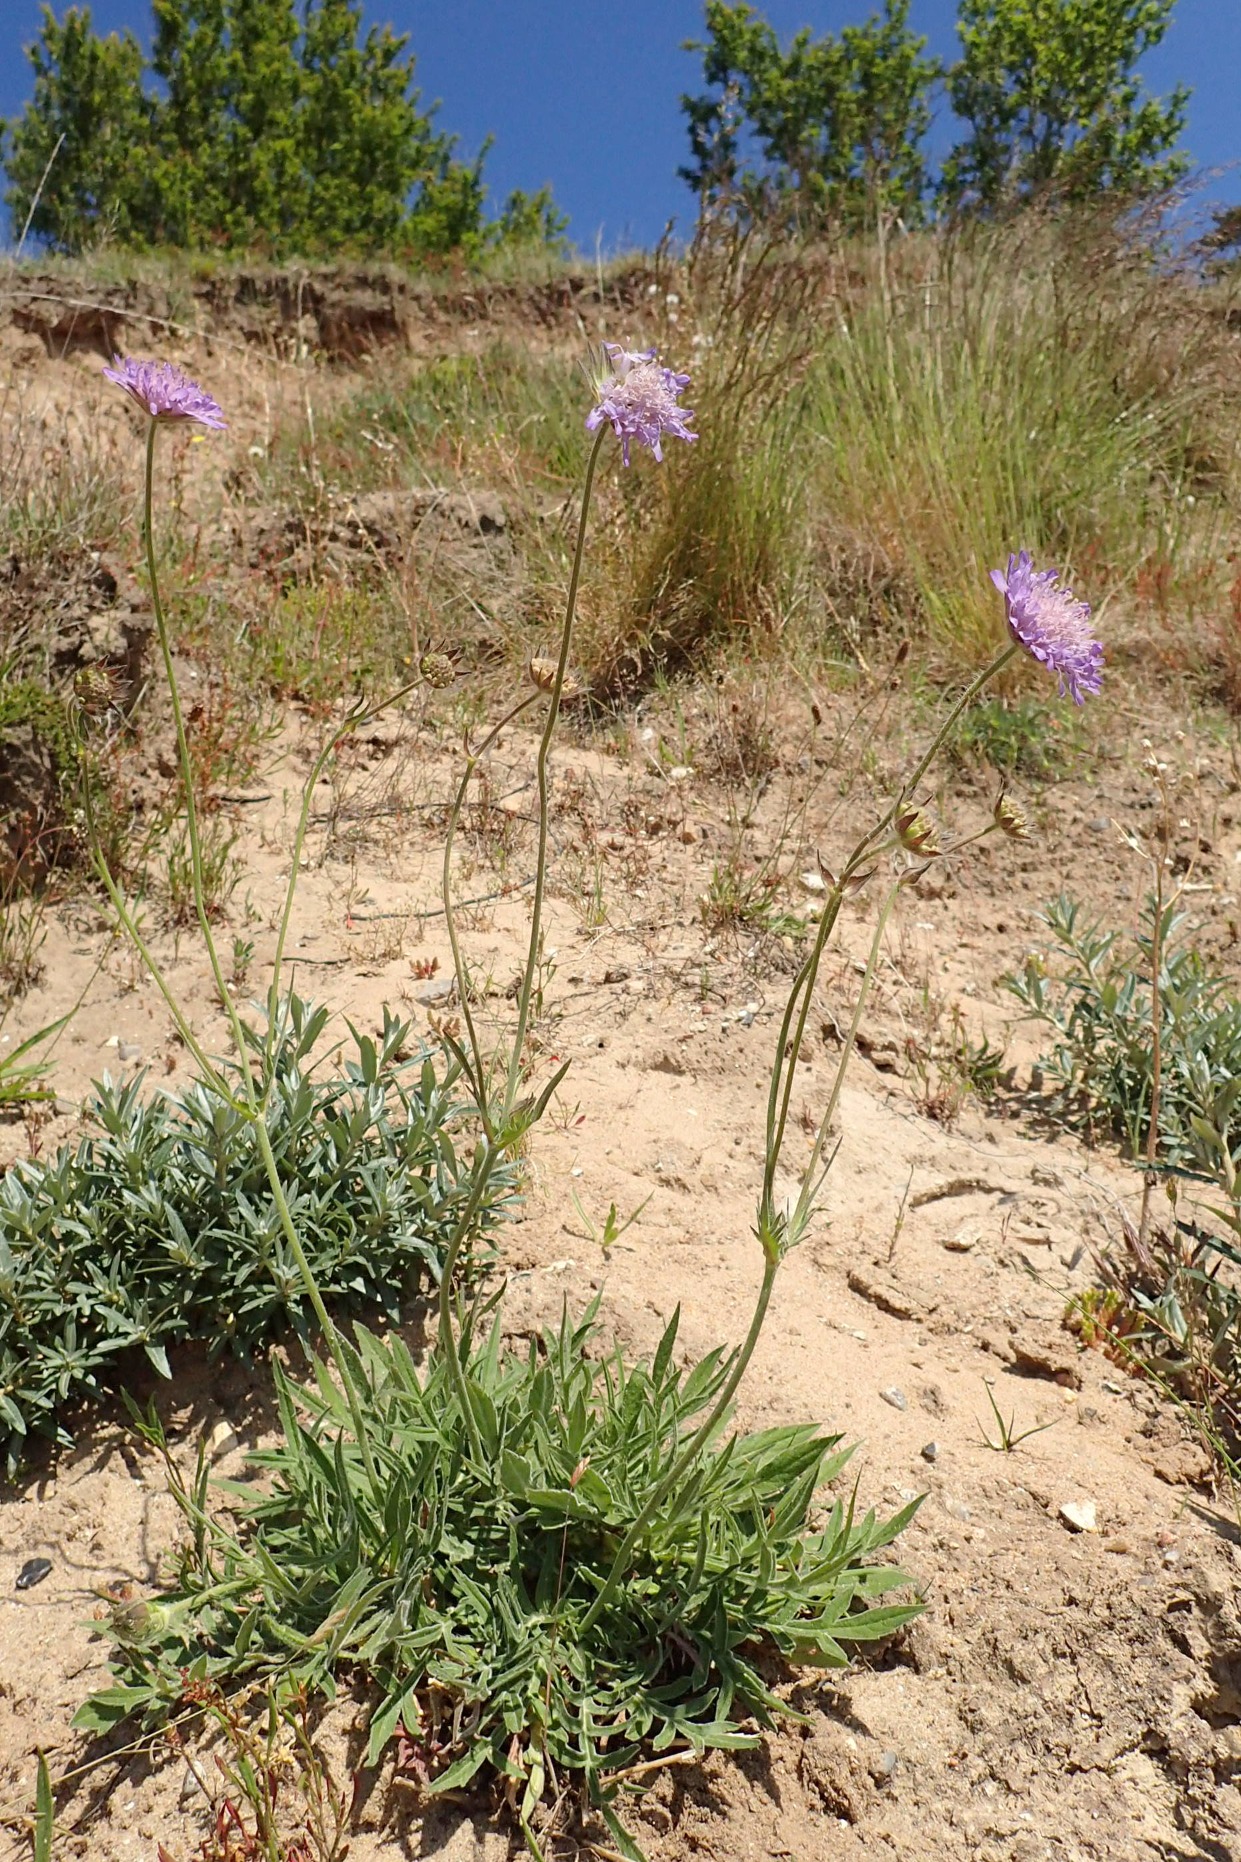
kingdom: Plantae
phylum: Tracheophyta
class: Magnoliopsida
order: Dipsacales
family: Caprifoliaceae
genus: Knautia
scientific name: Knautia arvensis
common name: Blåhat
